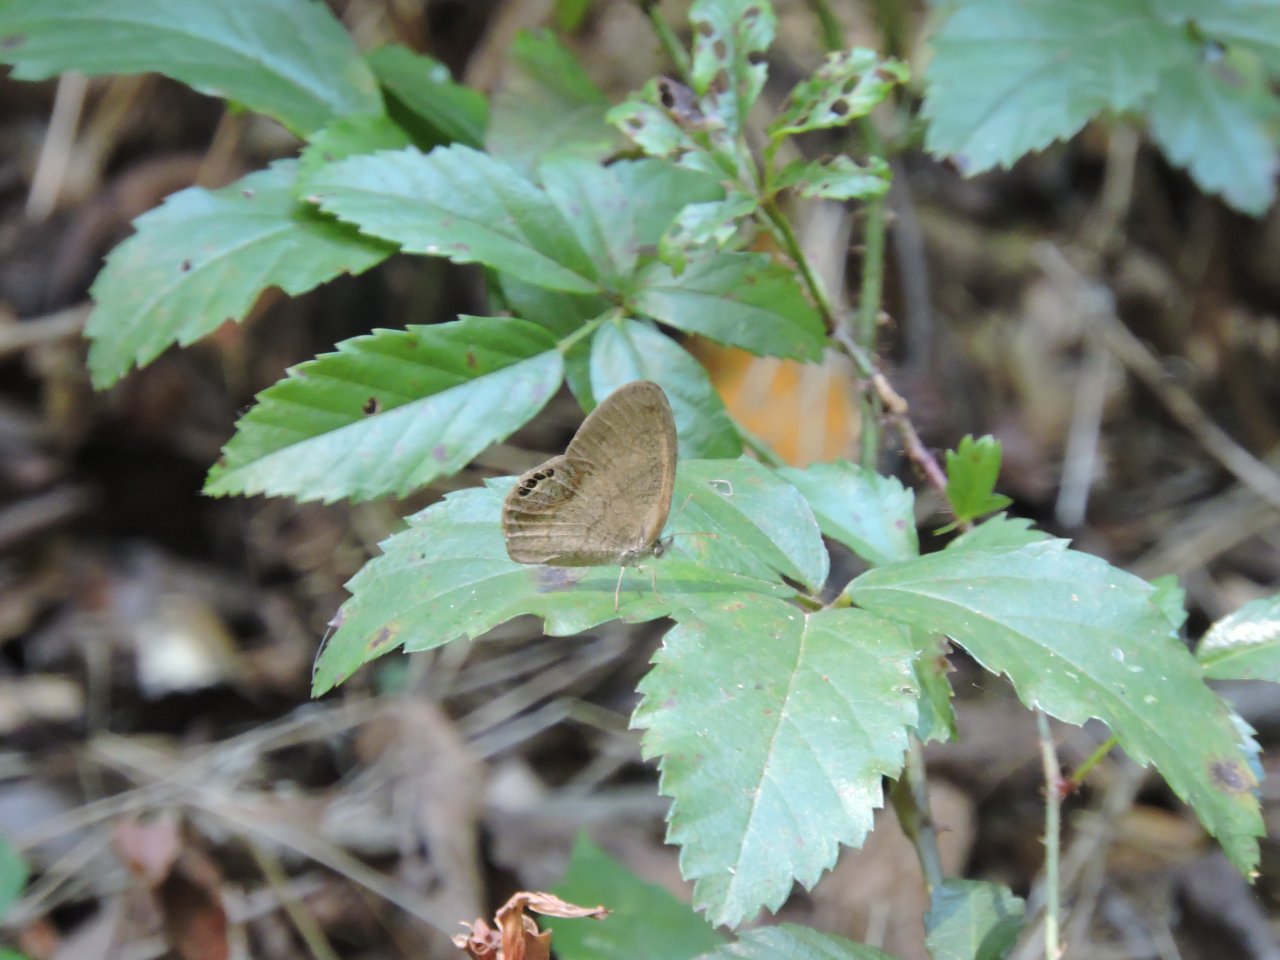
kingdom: Animalia
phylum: Arthropoda
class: Insecta
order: Lepidoptera
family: Nymphalidae
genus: Euptychia
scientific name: Euptychia cornelius
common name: Gemmed Satyr
